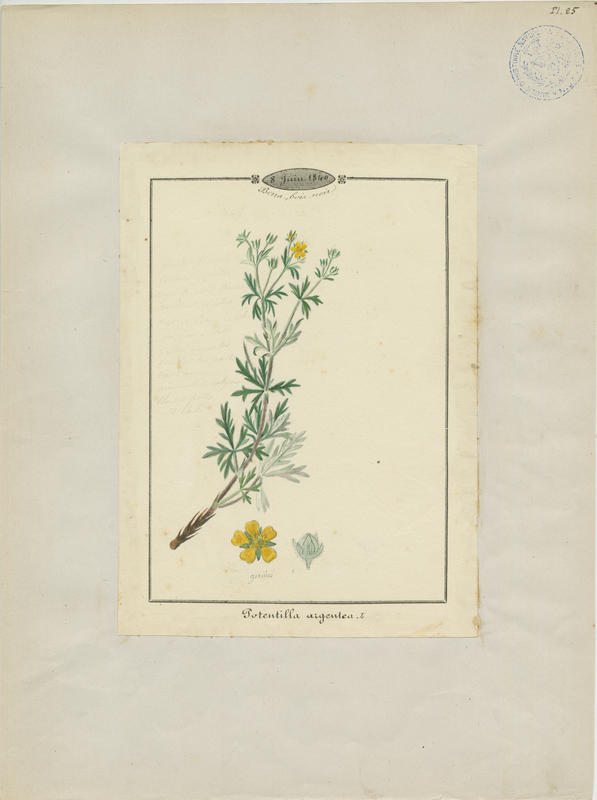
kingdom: Plantae
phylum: Tracheophyta
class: Magnoliopsida
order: Rosales
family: Rosaceae
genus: Potentilla
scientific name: Potentilla argentea
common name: Hoary cinquefoil
